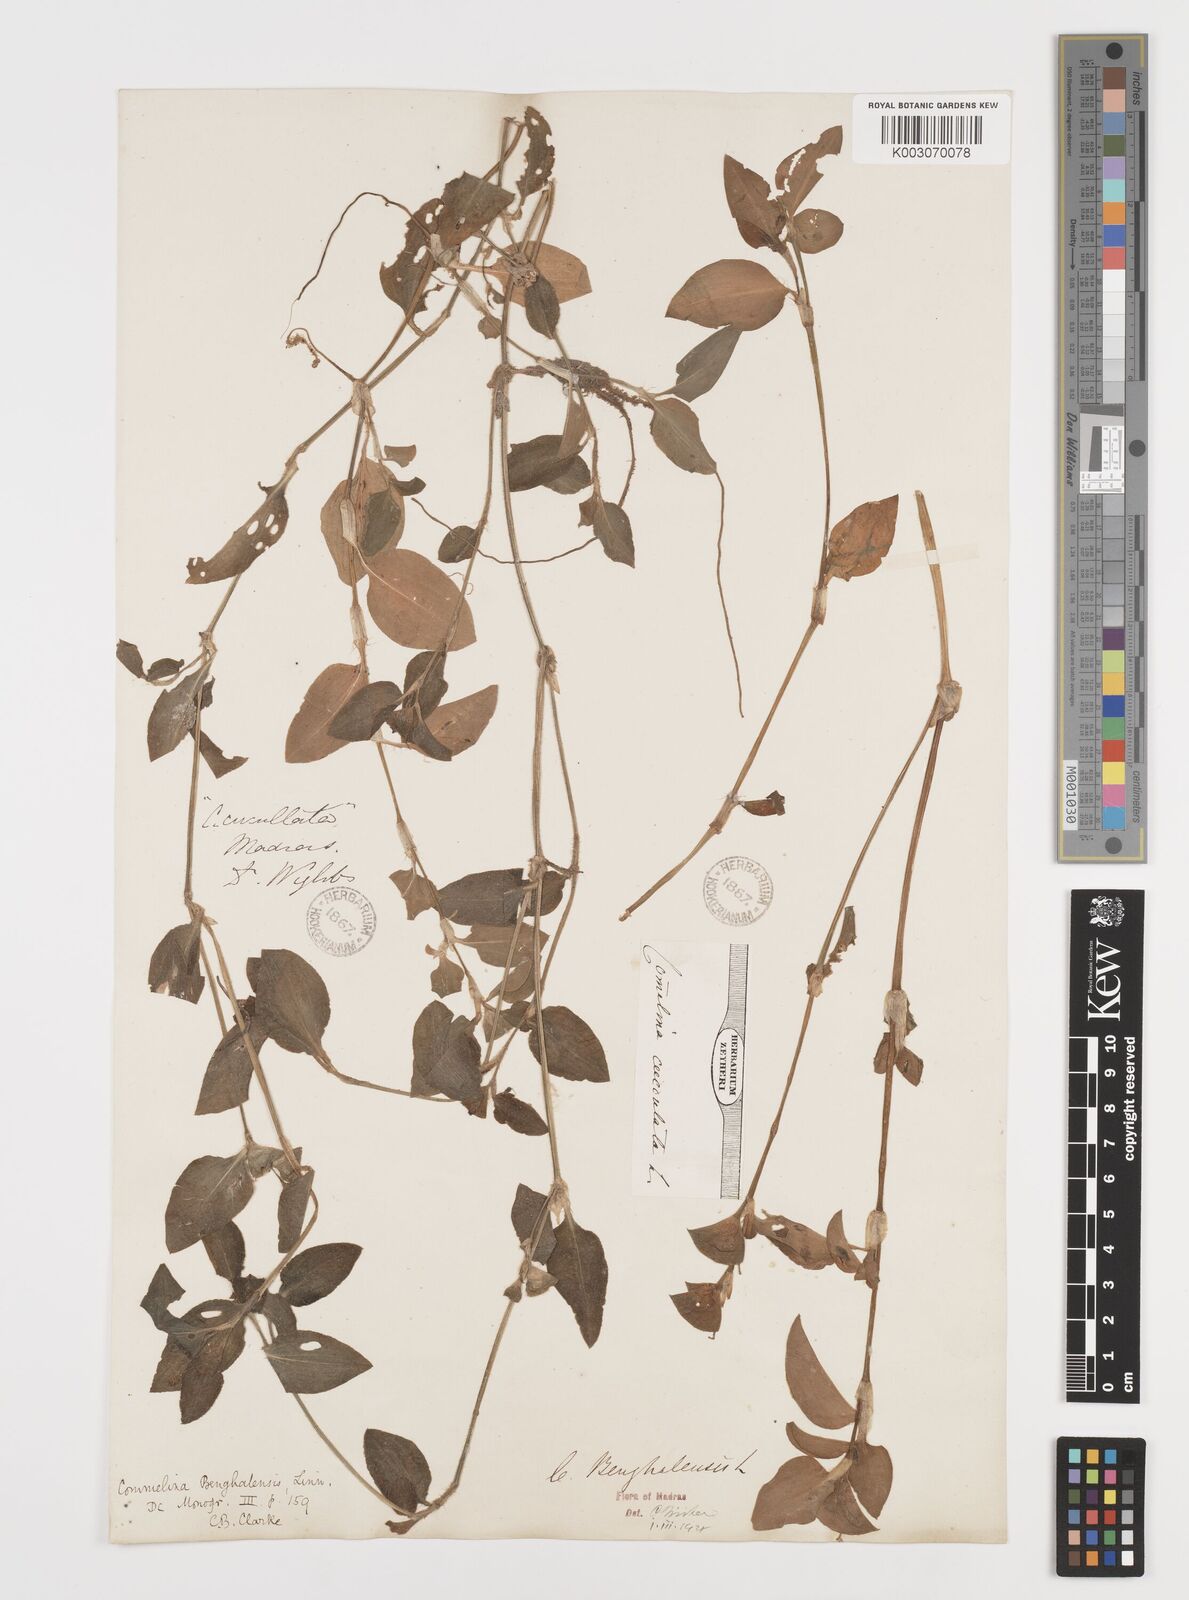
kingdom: Plantae
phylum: Tracheophyta
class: Liliopsida
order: Commelinales
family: Commelinaceae
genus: Commelina
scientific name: Commelina benghalensis
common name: Jio
